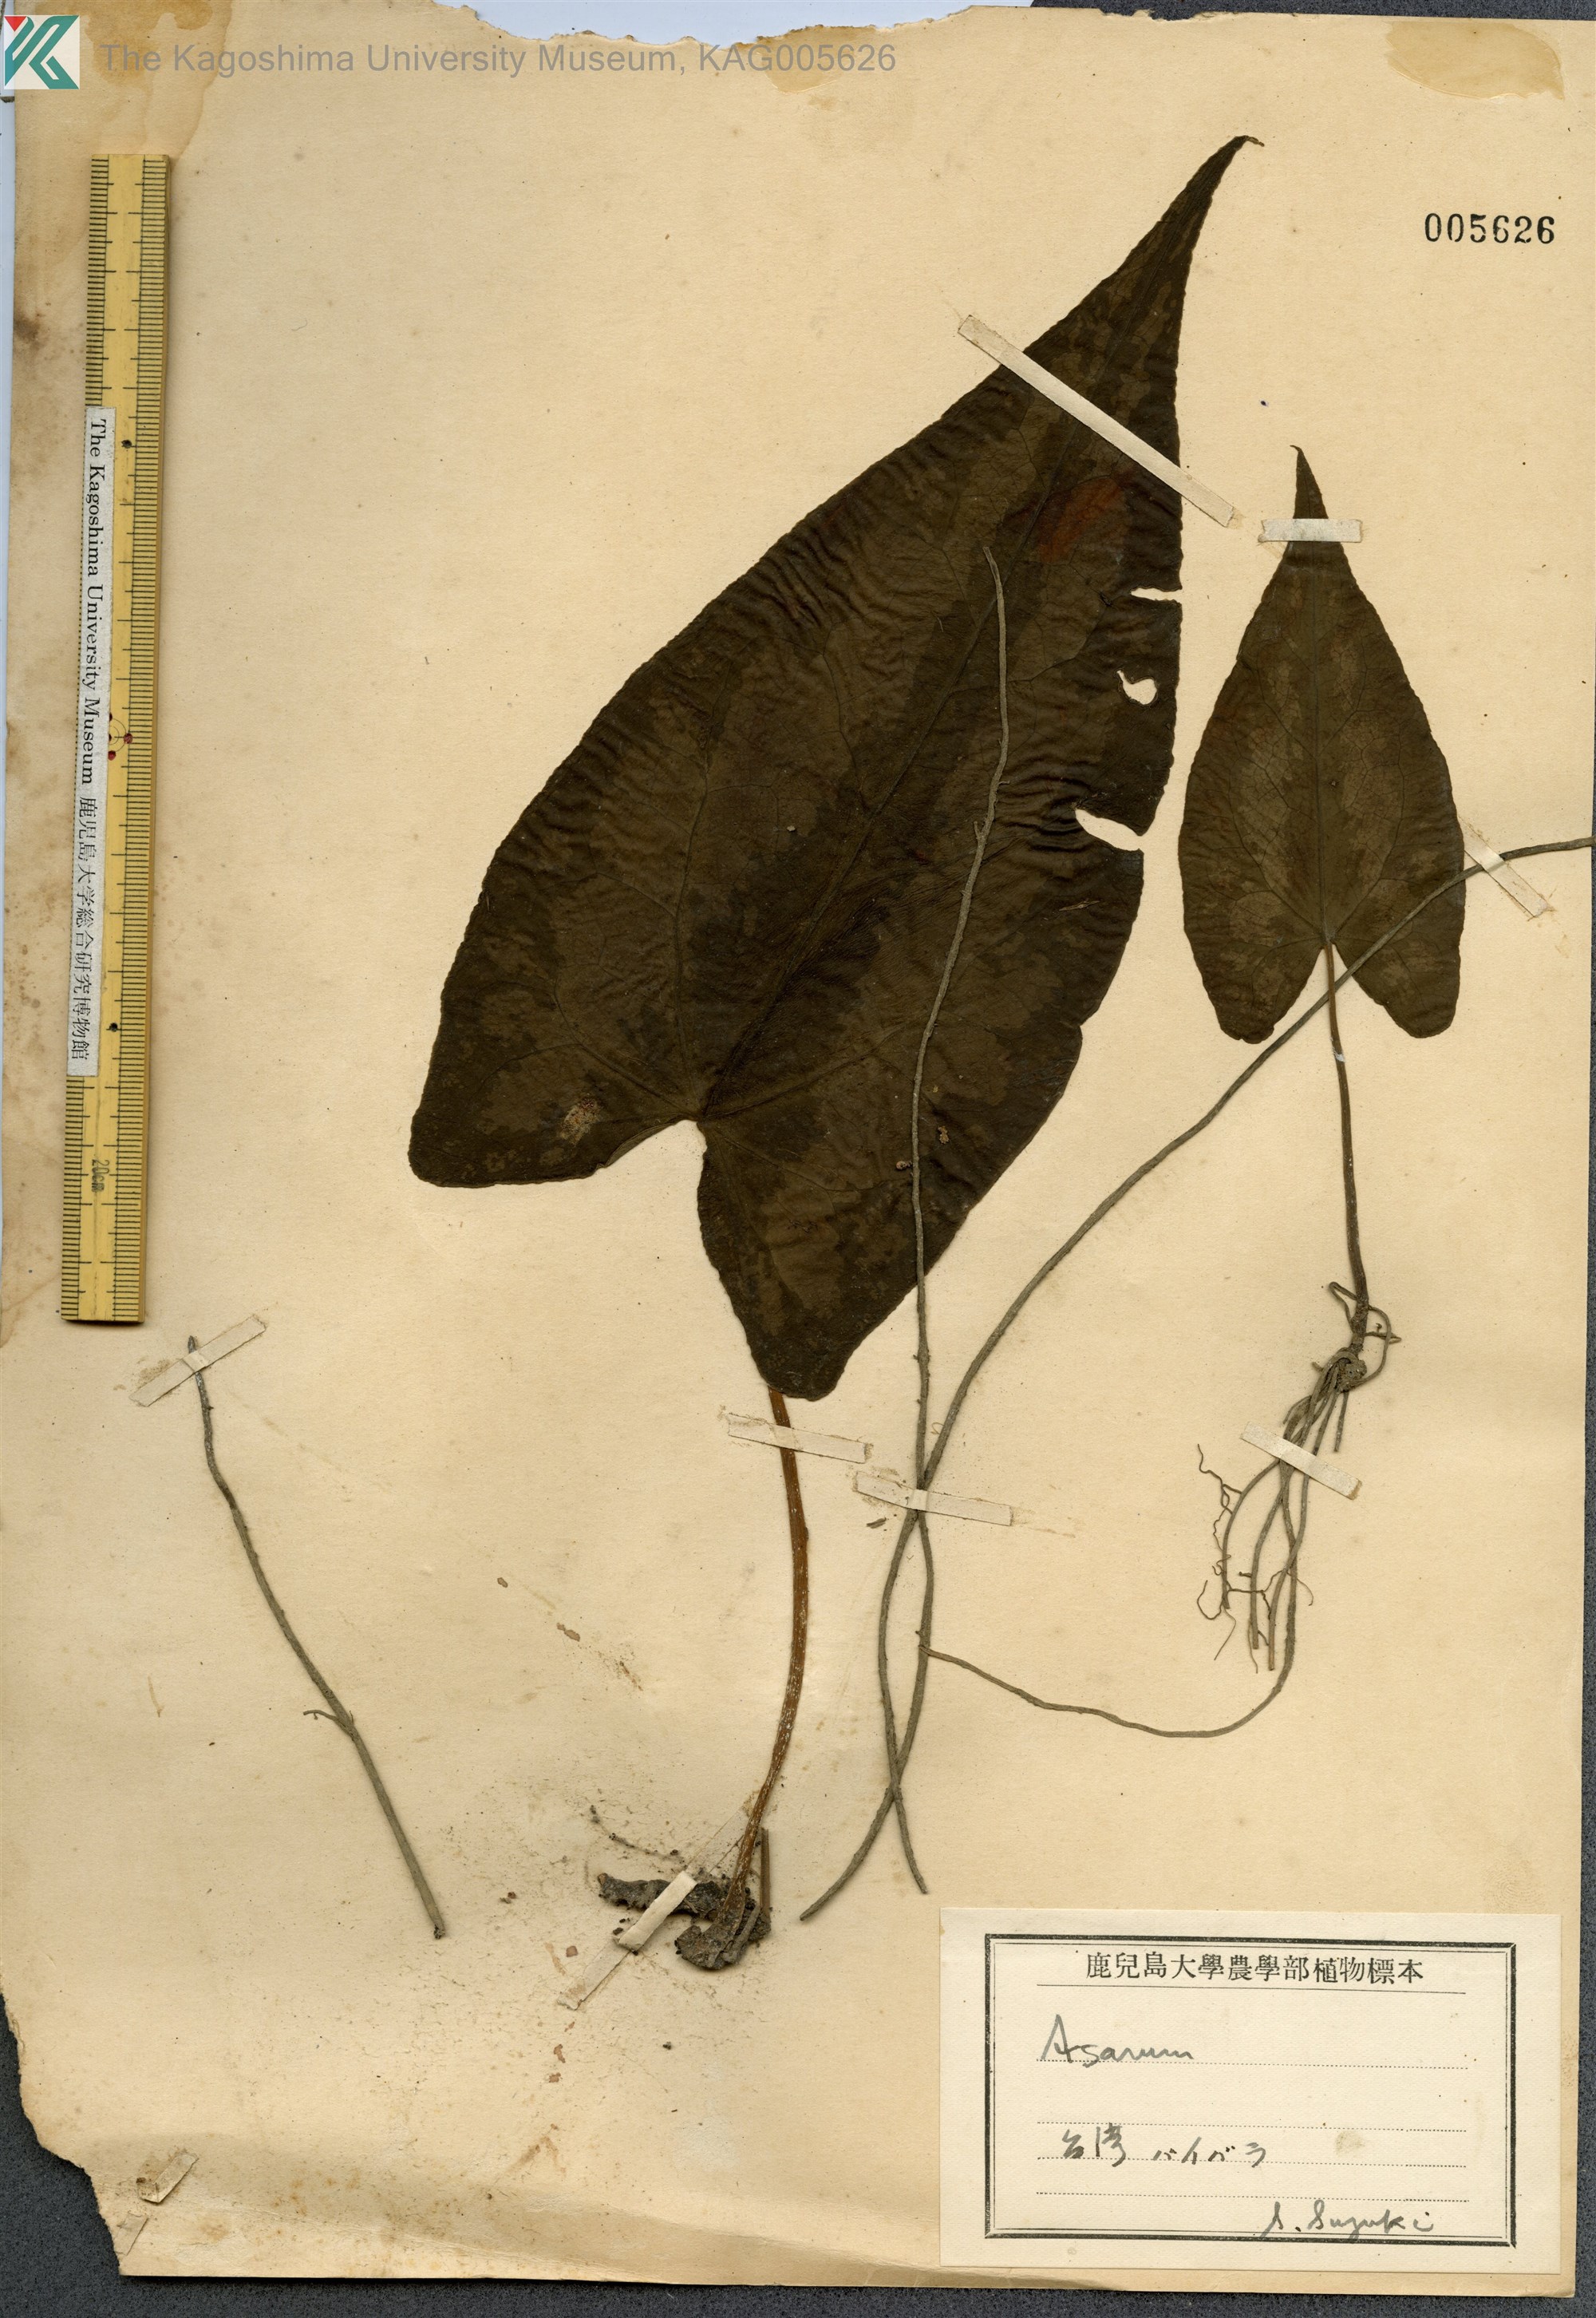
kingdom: Plantae
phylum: Tracheophyta
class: Magnoliopsida
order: Piperales
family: Aristolochiaceae
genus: Asarum
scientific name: Asarum macranthum
